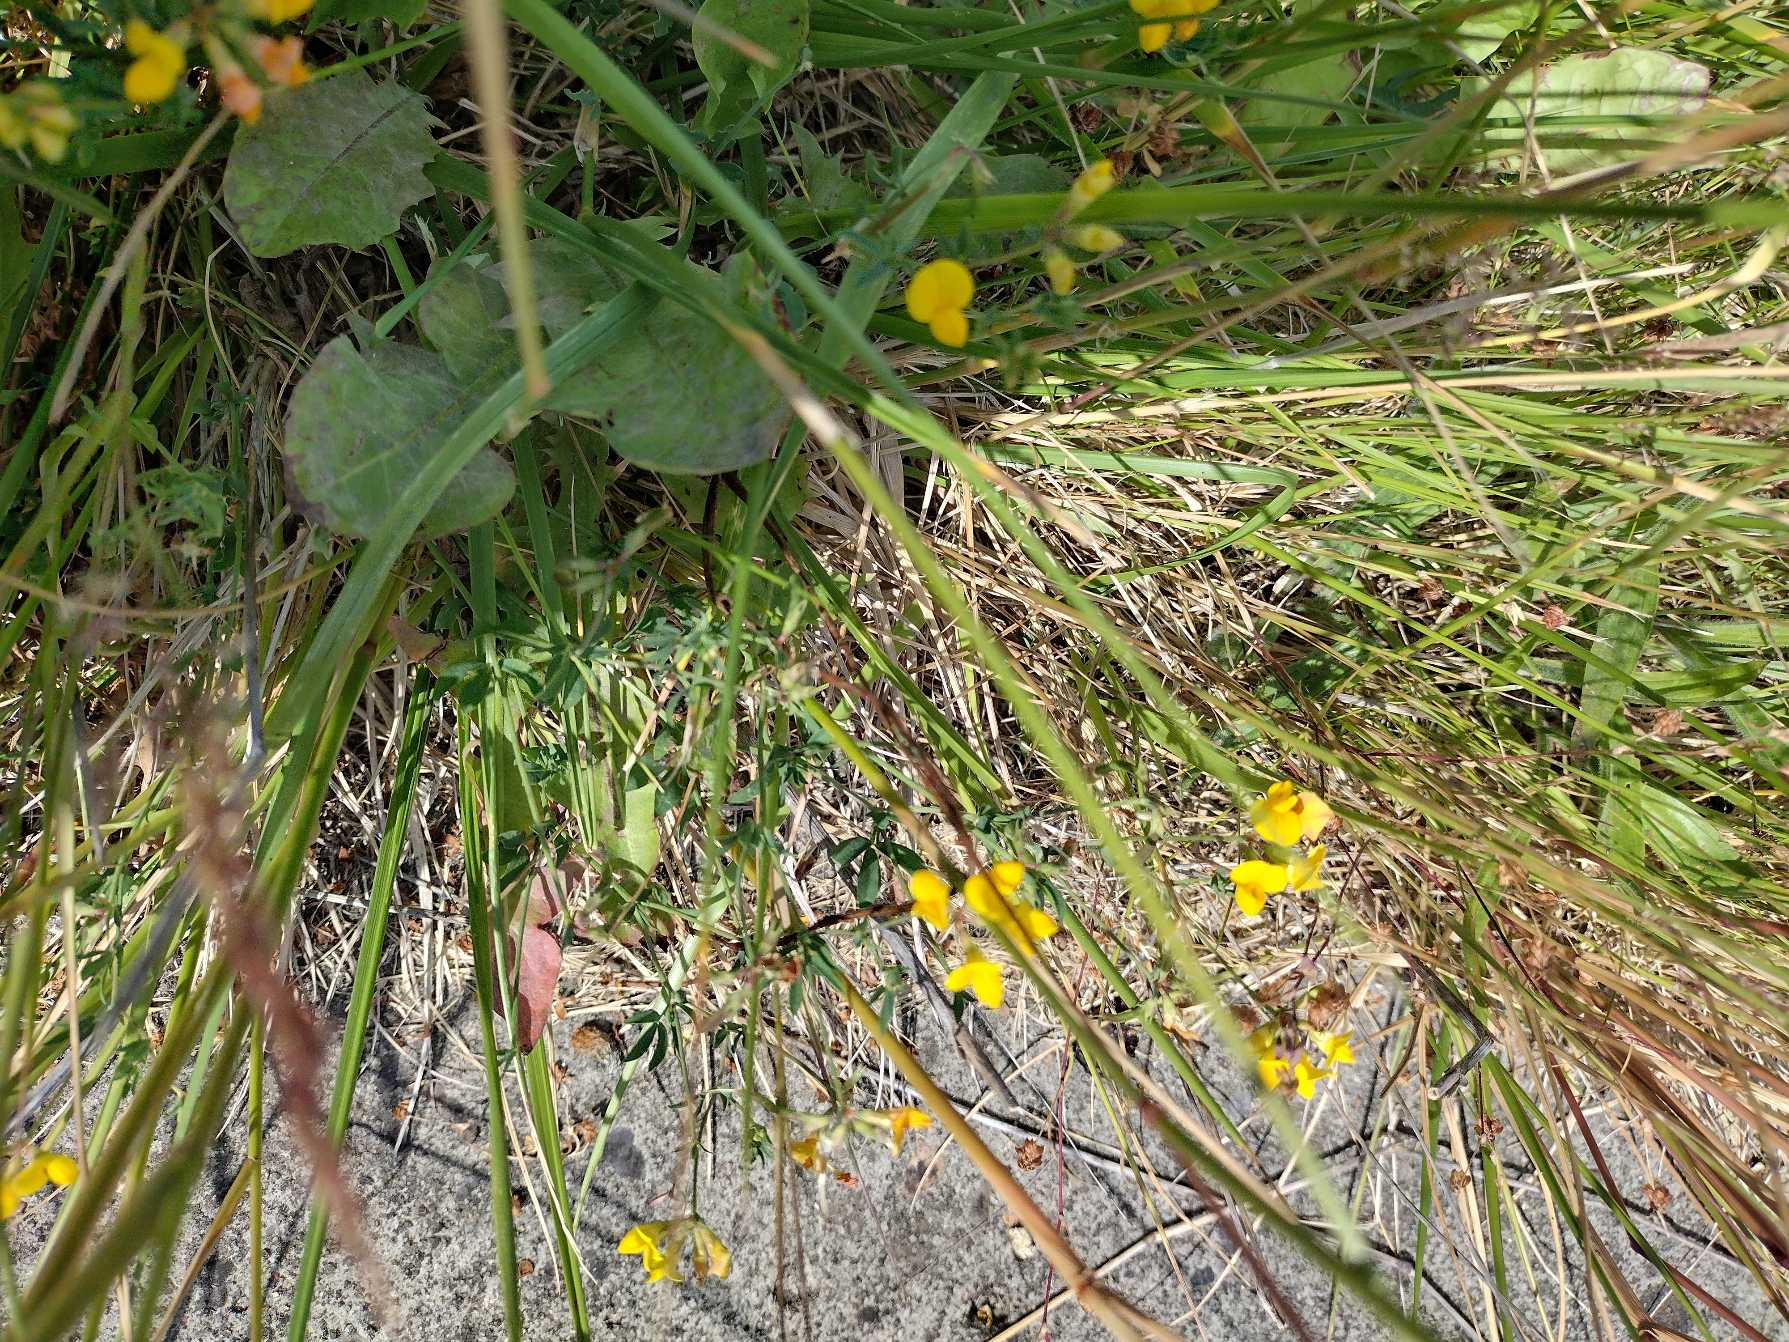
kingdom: Plantae
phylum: Tracheophyta
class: Magnoliopsida
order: Fabales
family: Fabaceae
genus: Lotus
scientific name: Lotus pedunculatus
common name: Klit-kællingetand
